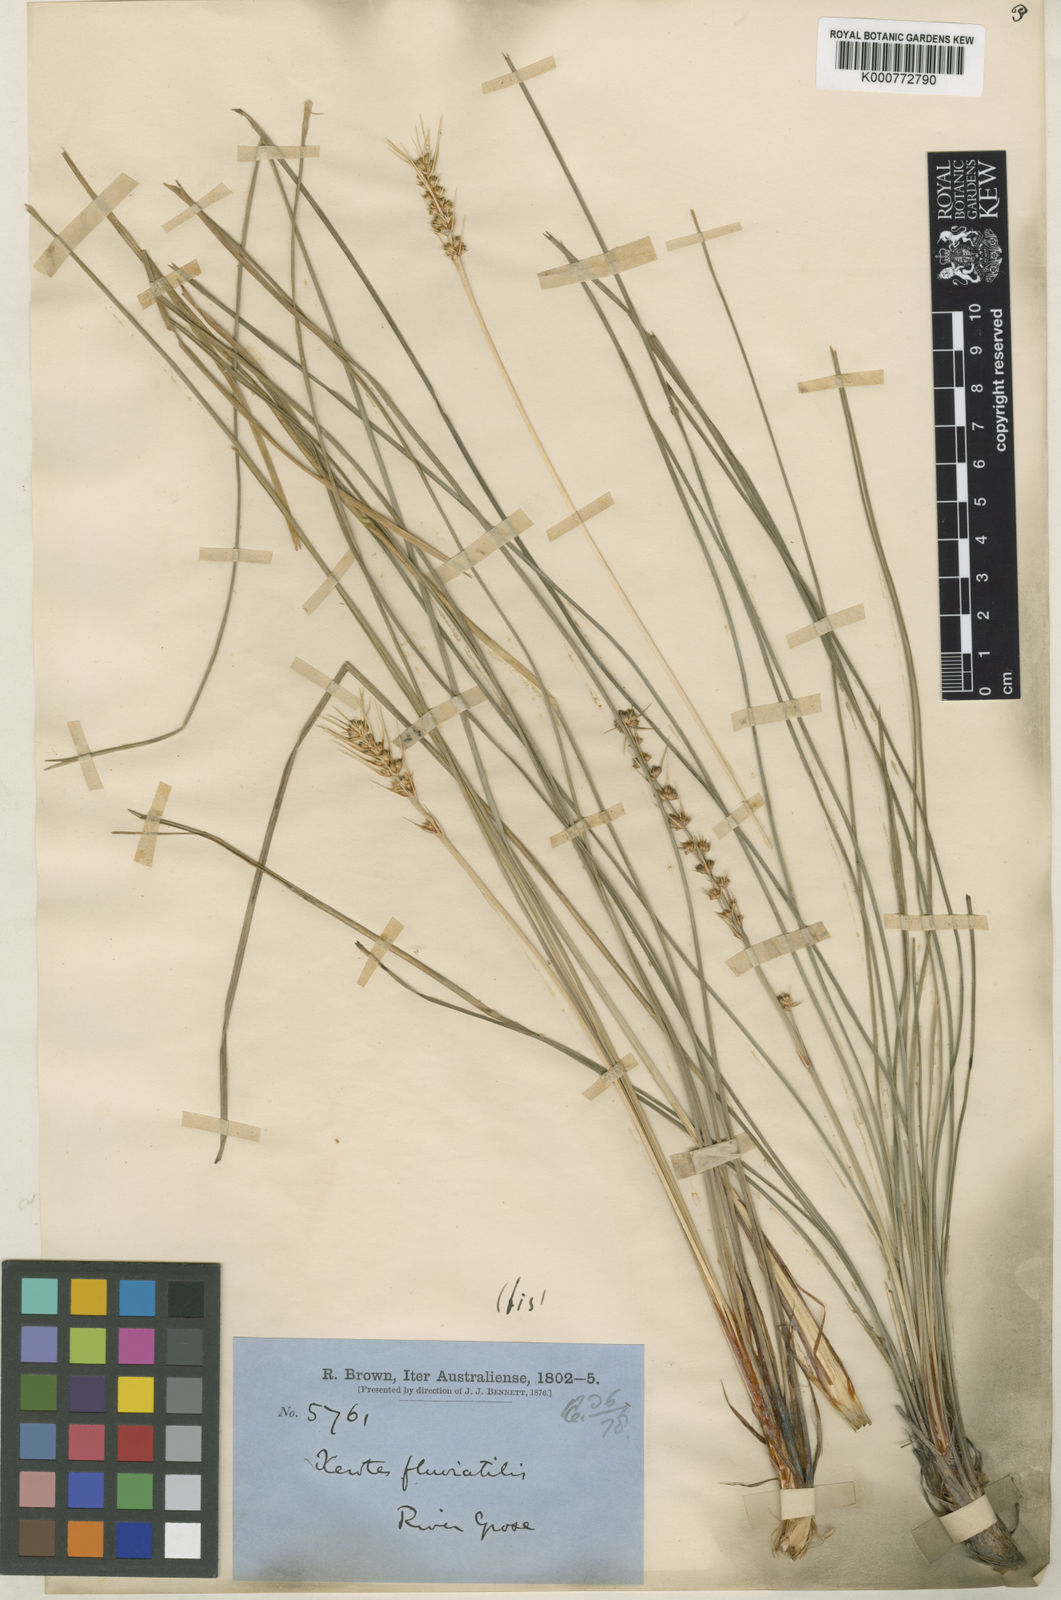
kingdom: Plantae
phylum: Tracheophyta
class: Liliopsida
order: Asparagales
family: Asparagaceae
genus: Lomandra
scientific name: Lomandra longifolia
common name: Longleaf mat-rush
